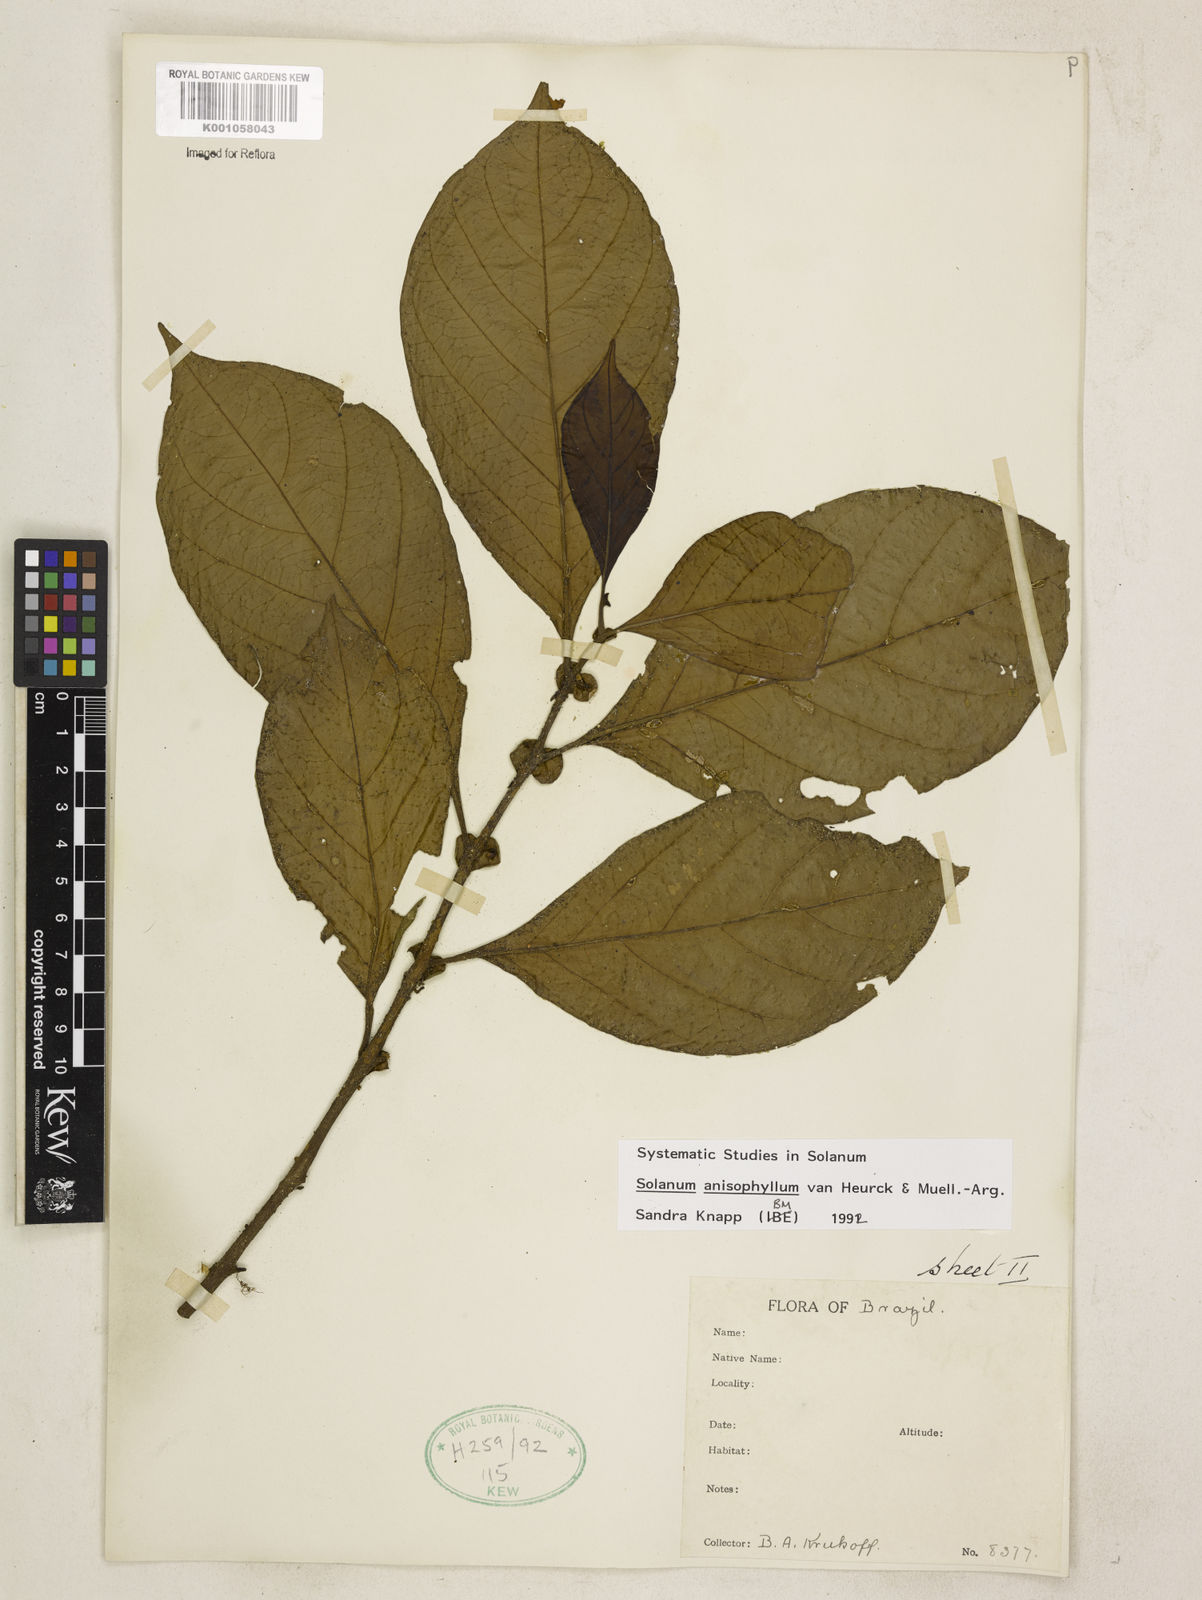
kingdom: Plantae
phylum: Tracheophyta
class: Magnoliopsida
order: Solanales
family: Solanaceae
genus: Solanum
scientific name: Solanum anisophyllum
